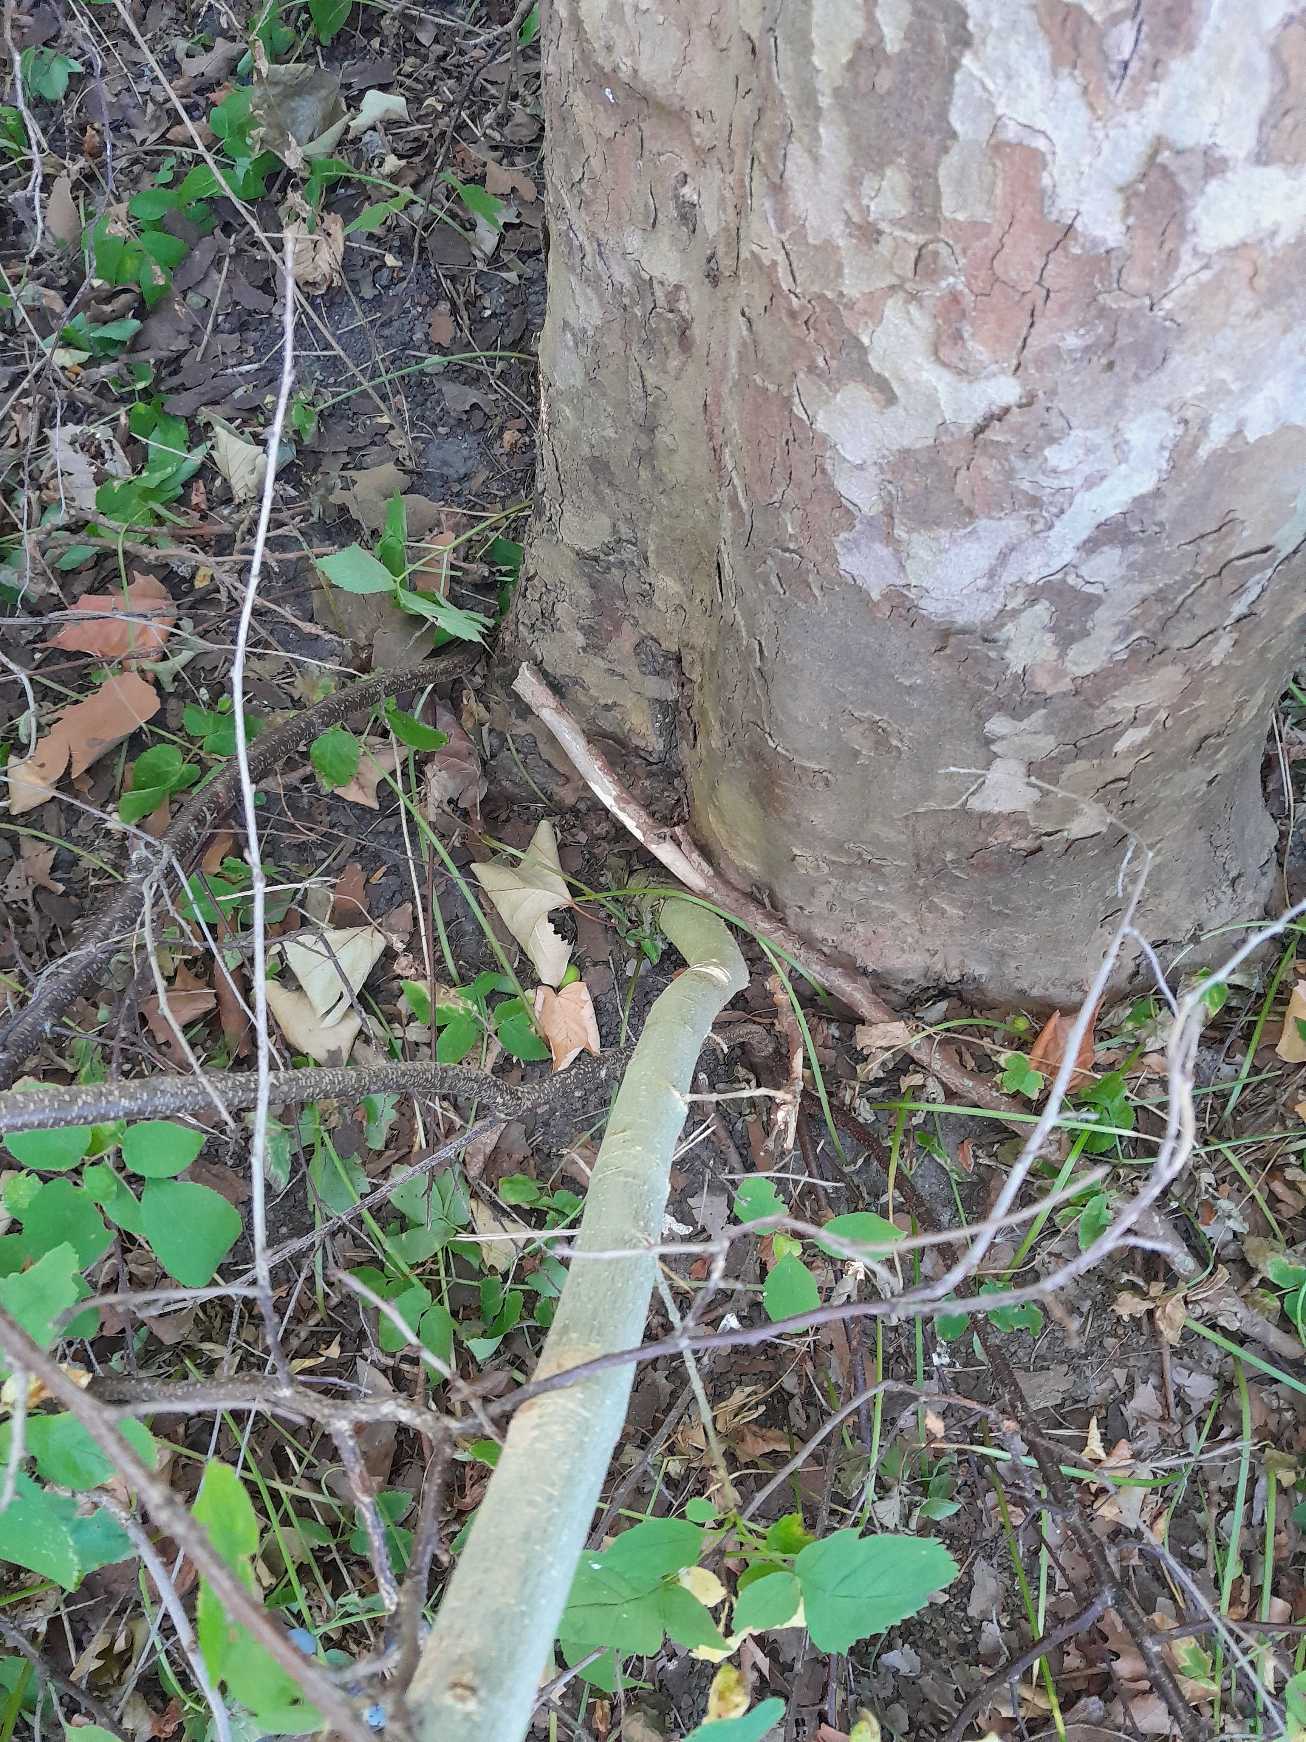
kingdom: Plantae
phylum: Tracheophyta
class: Magnoliopsida
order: Lamiales
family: Oleaceae
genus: Fraxinus
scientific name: Fraxinus excelsior
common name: Ask
